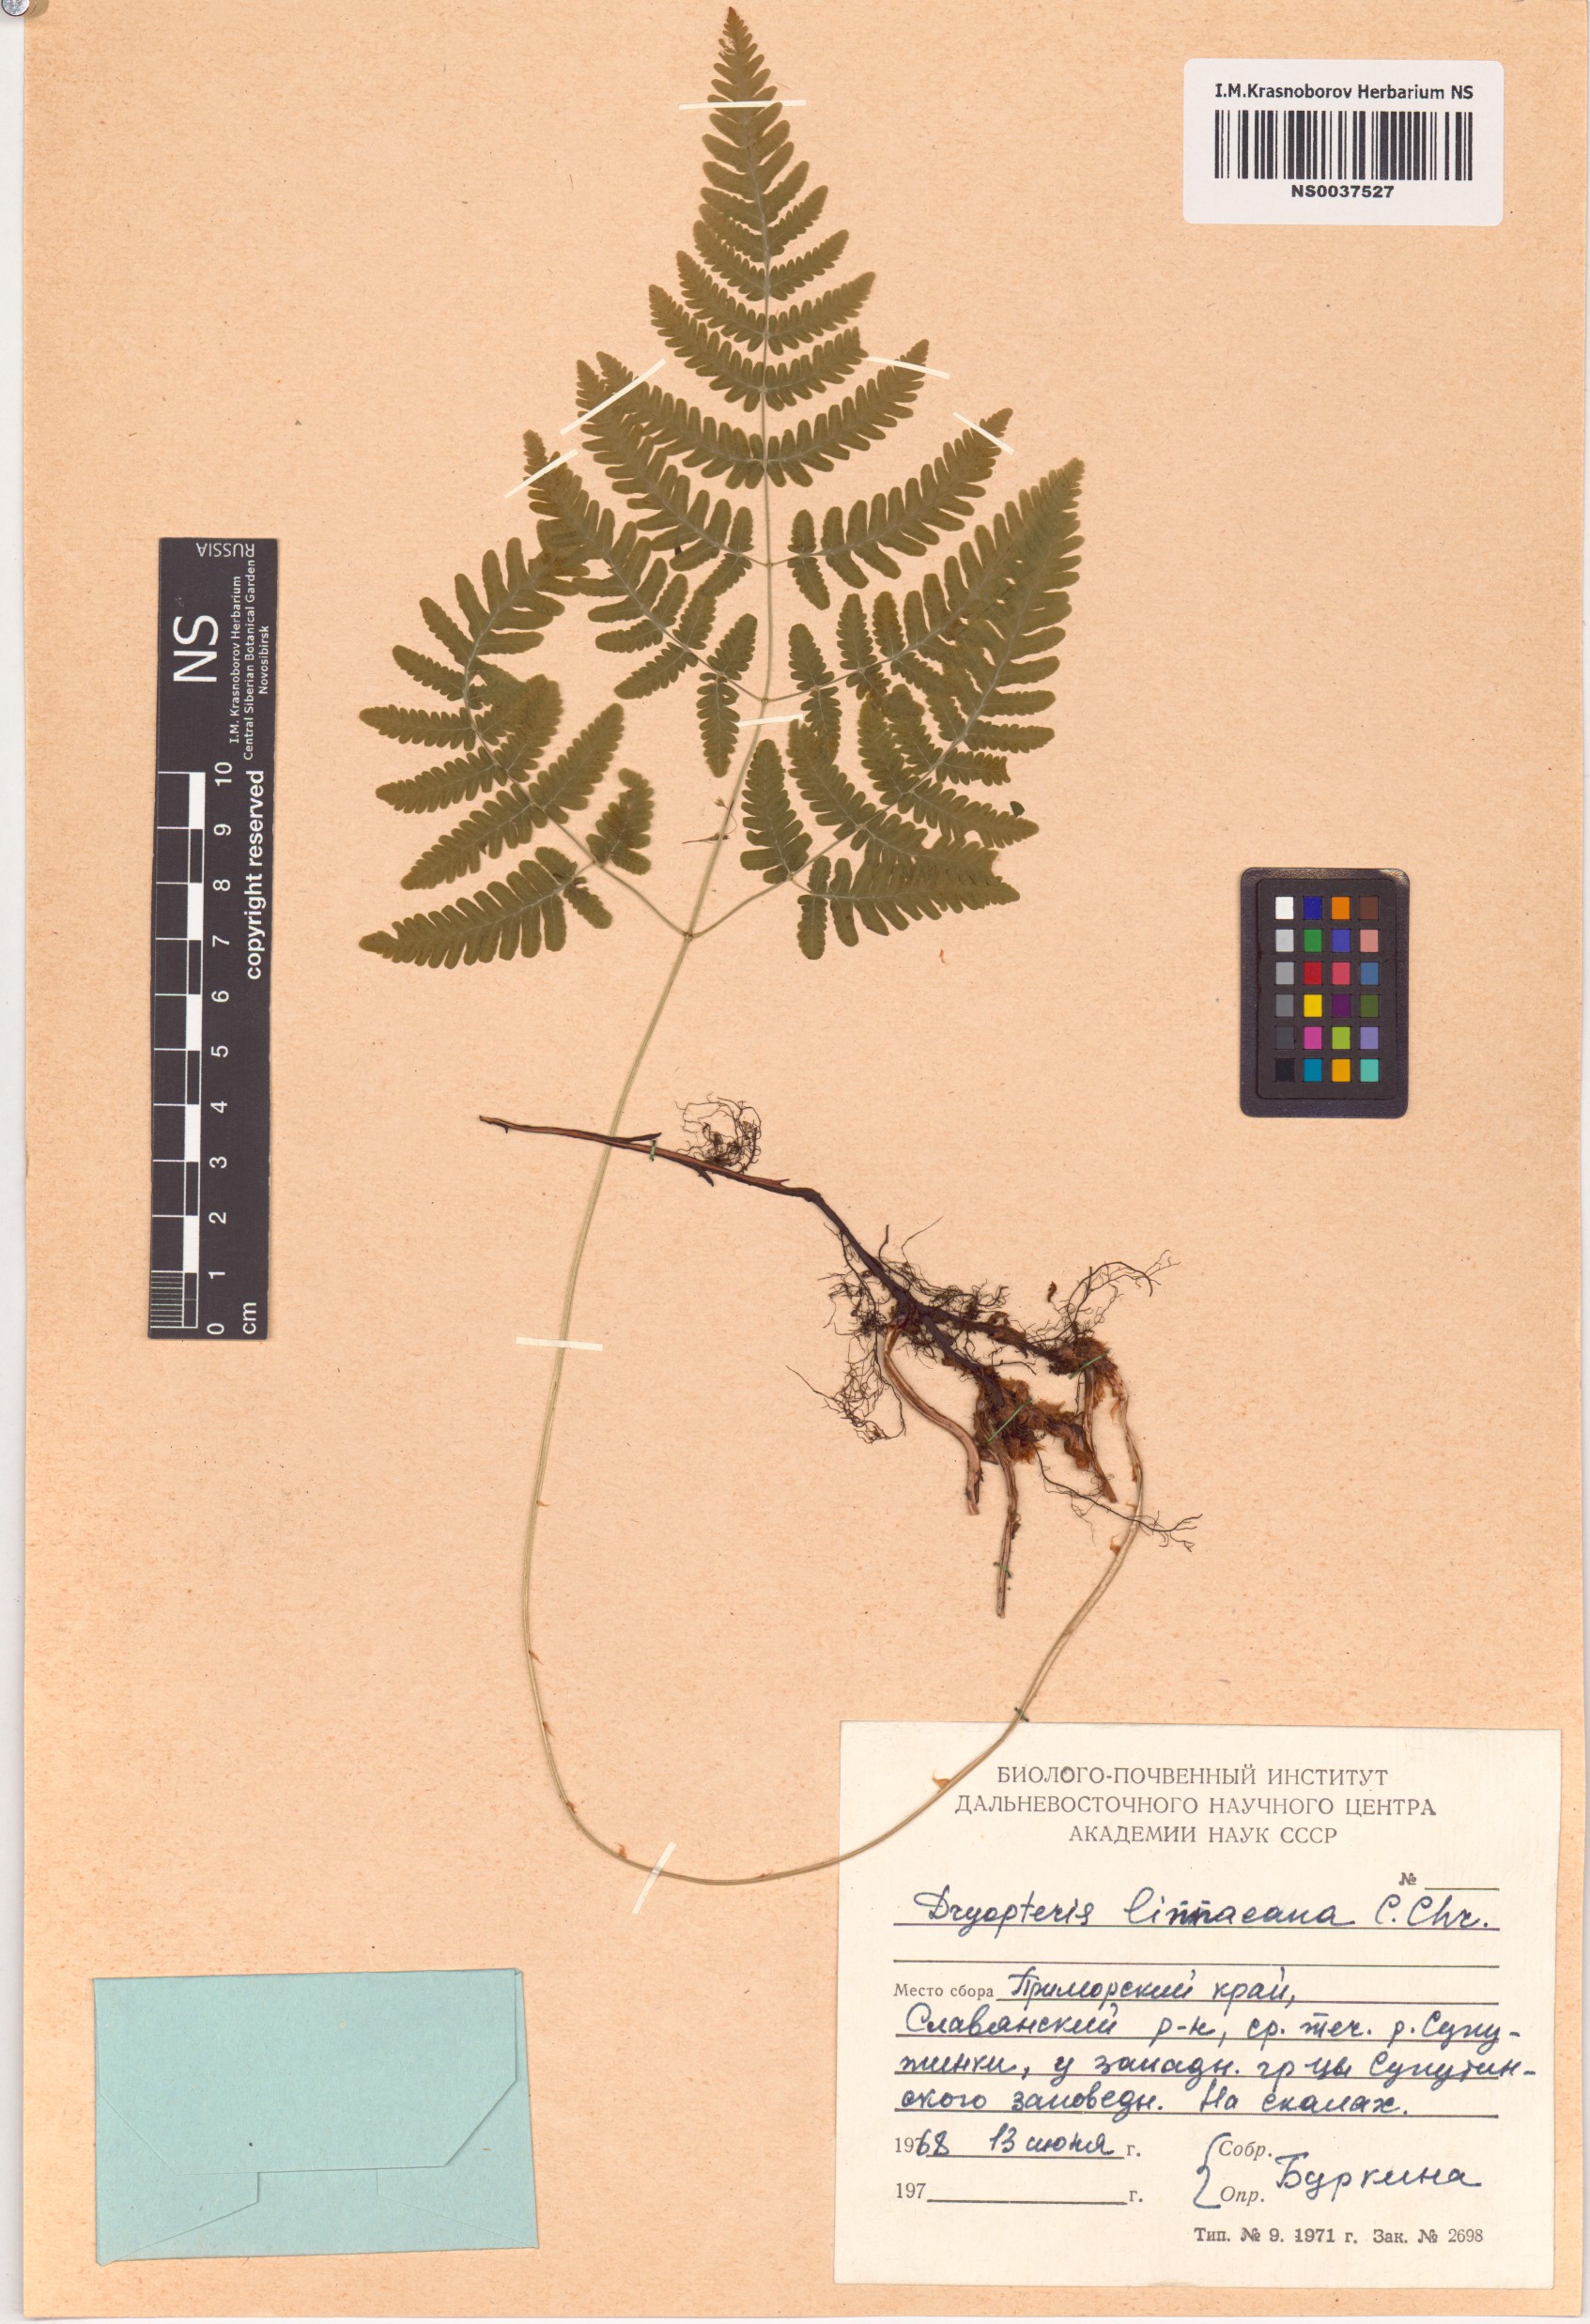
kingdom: Plantae
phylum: Tracheophyta
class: Polypodiopsida
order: Polypodiales
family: Cystopteridaceae
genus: Gymnocarpium
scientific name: Gymnocarpium dryopteris
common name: Oak fern
